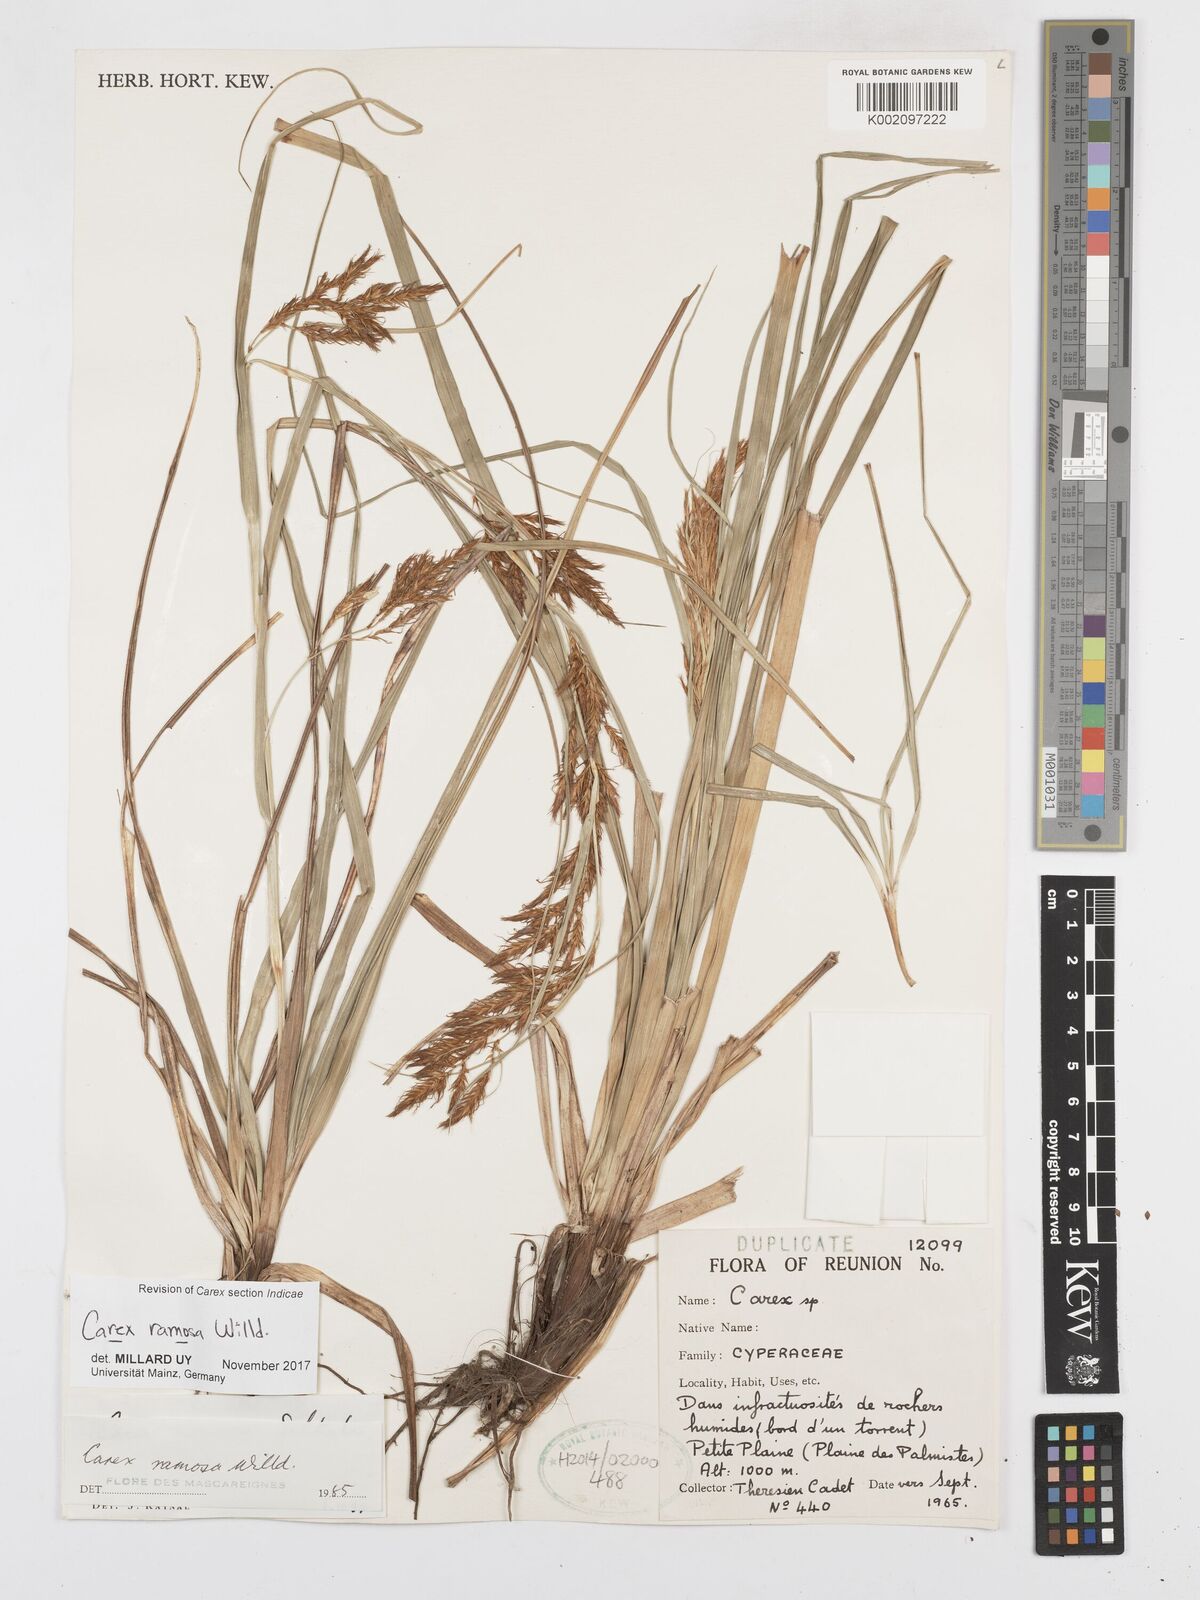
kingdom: Plantae
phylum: Tracheophyta
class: Liliopsida
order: Poales
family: Cyperaceae
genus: Carex
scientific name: Carex ramosa
